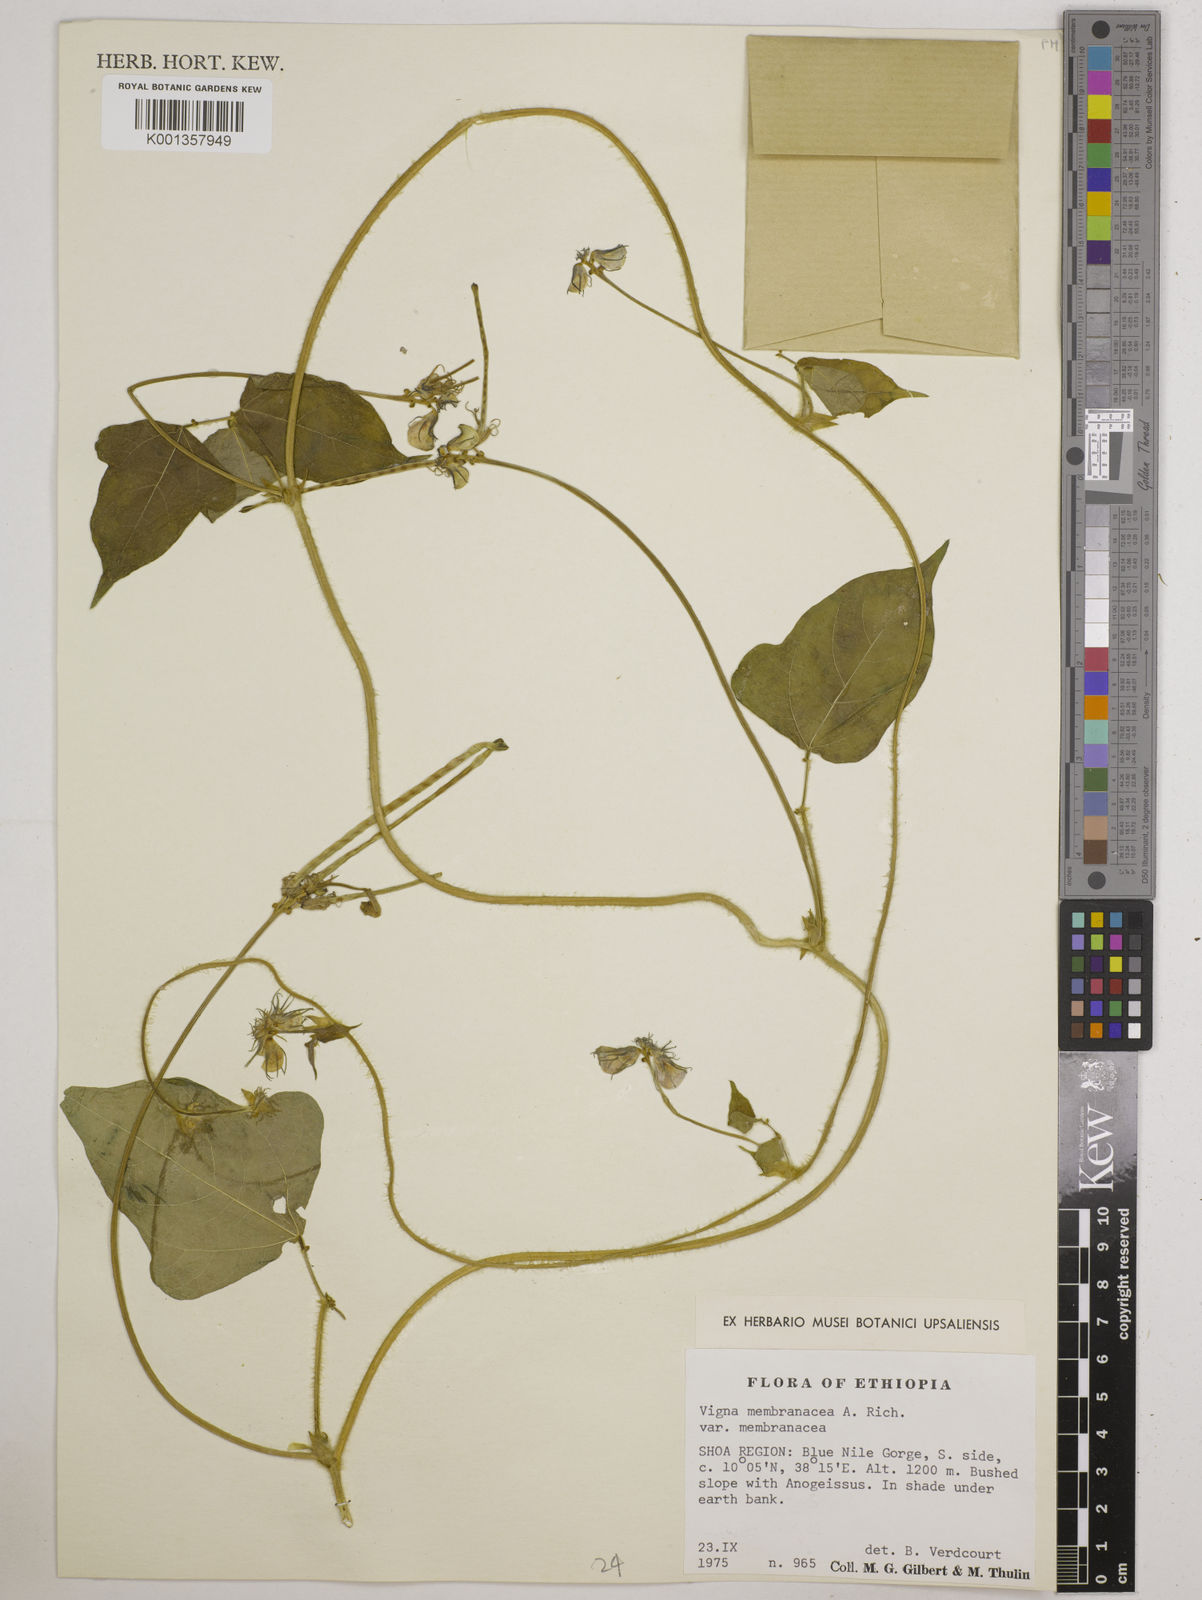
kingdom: Plantae
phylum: Tracheophyta
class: Magnoliopsida
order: Fabales
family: Fabaceae
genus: Vigna
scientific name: Vigna membranacea
